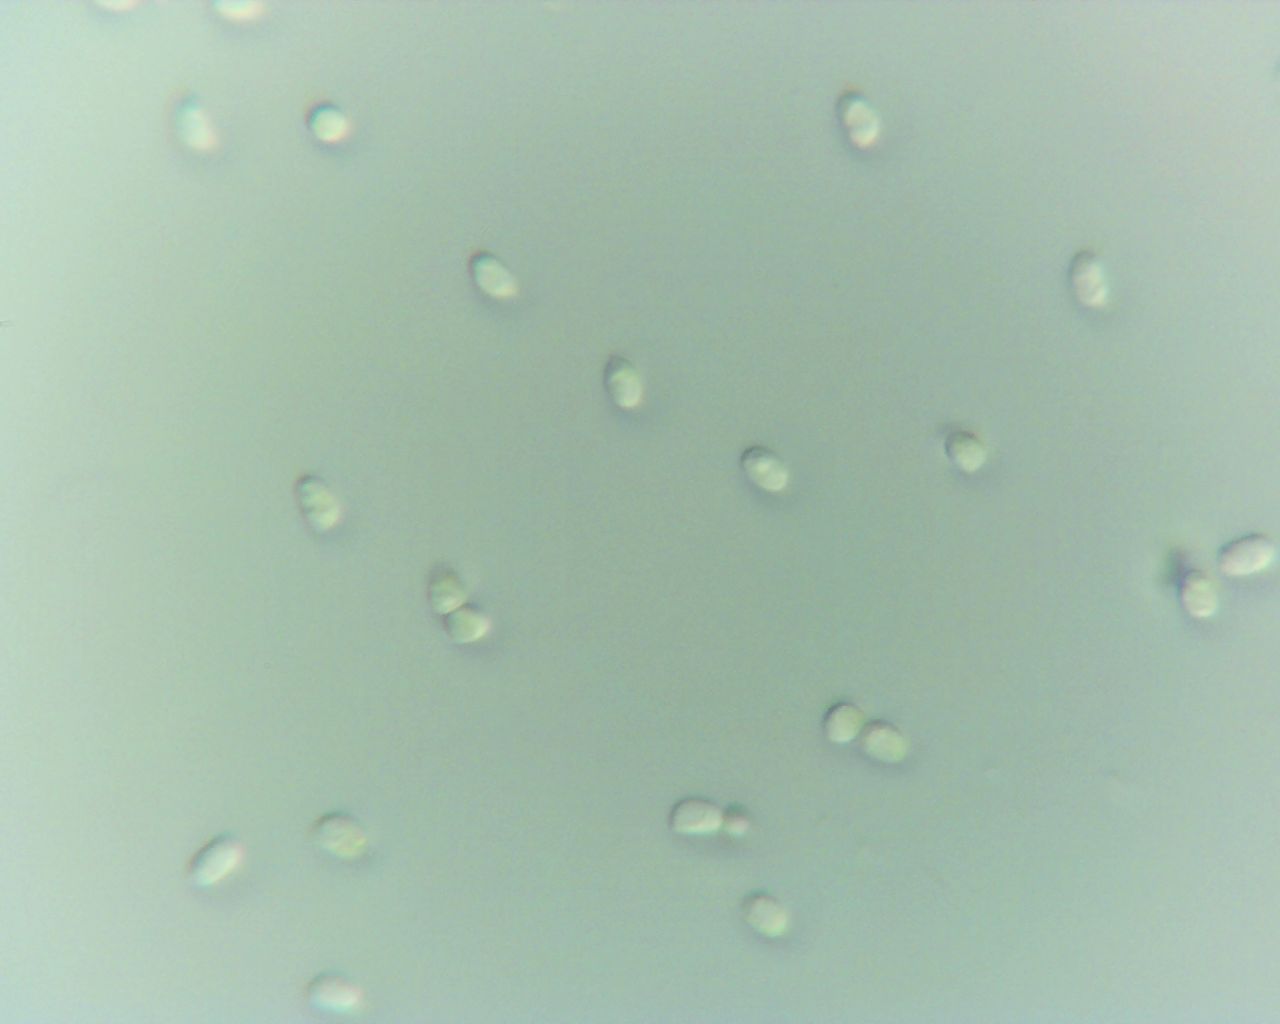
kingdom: Fungi
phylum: Basidiomycota
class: Agaricomycetes
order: Polyporales
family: Irpicaceae
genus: Ceriporia
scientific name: Ceriporia excelsa
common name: lilla voksporesvamp
